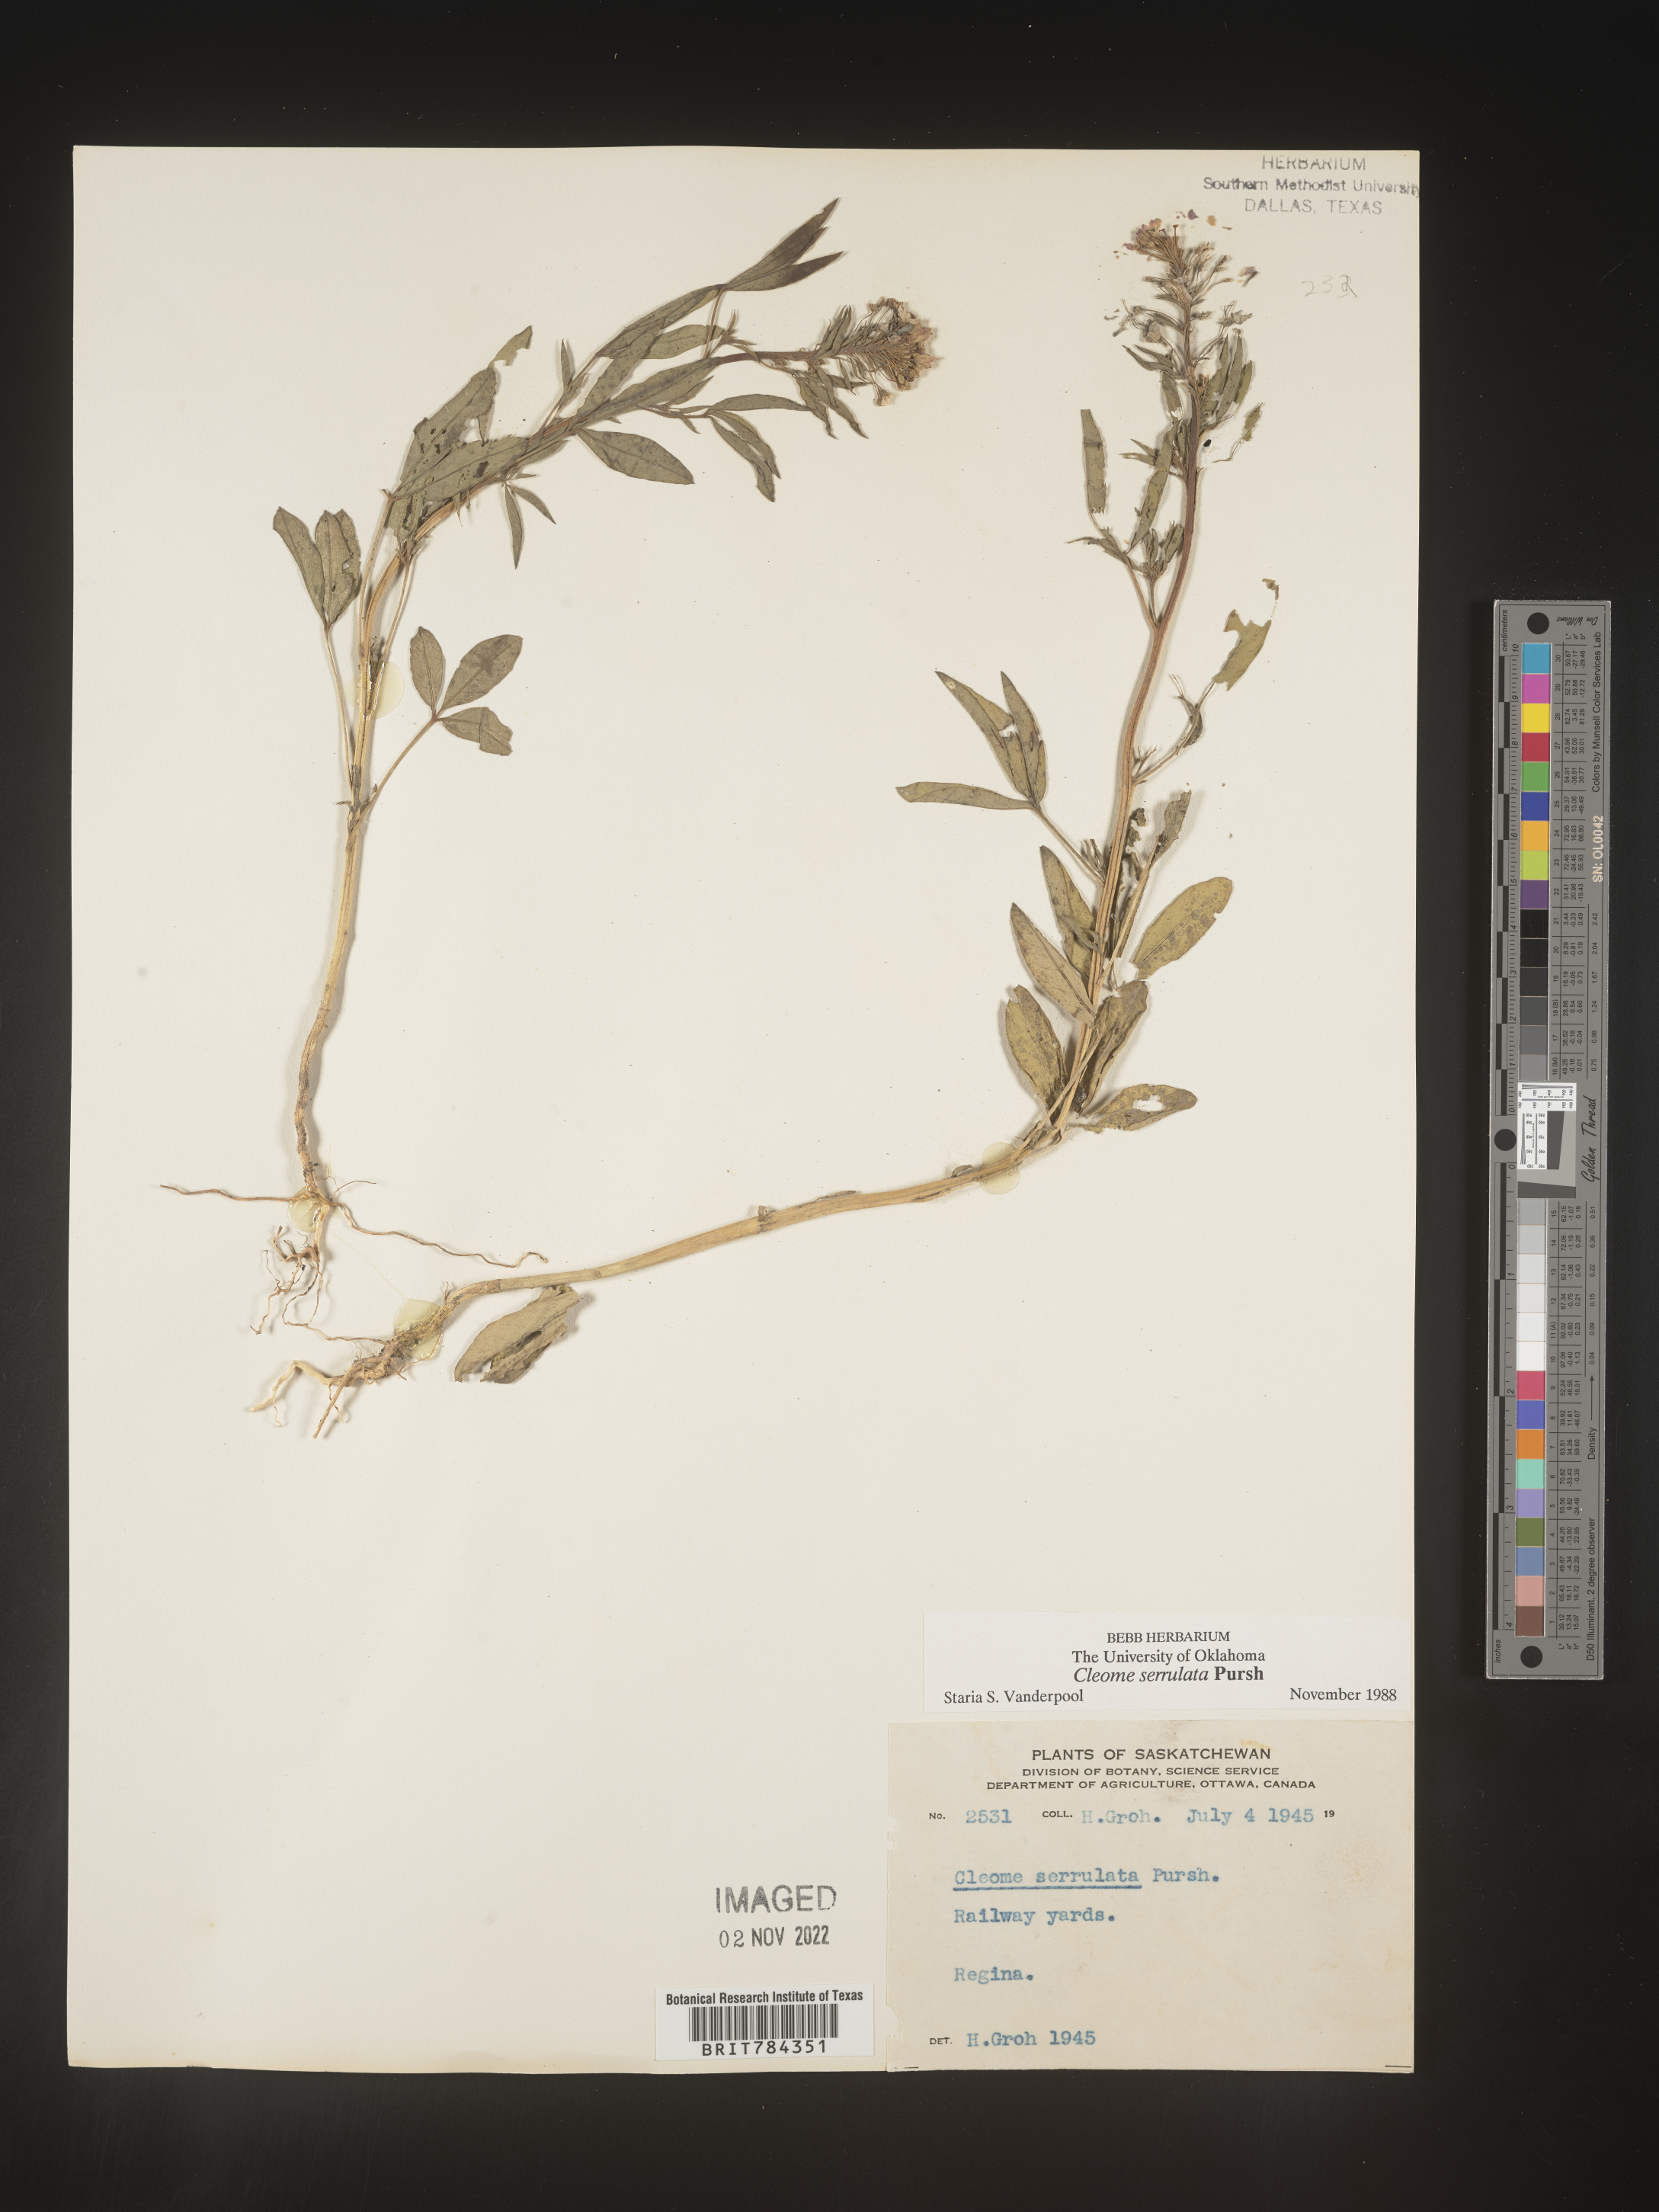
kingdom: Plantae
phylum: Tracheophyta
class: Magnoliopsida
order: Brassicales
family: Cleomaceae
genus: Cleomella
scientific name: Cleomella serrulata
